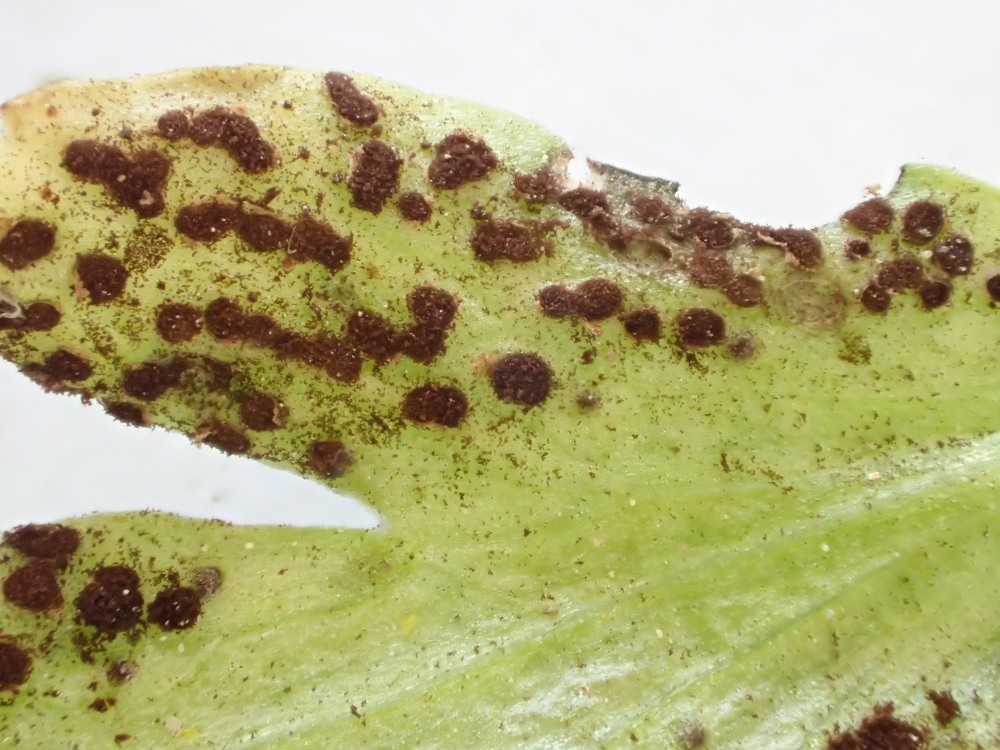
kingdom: Fungi
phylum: Basidiomycota
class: Pucciniomycetes
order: Pucciniales
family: Tranzscheliaceae
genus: Tranzschelia
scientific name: Tranzschelia anemones
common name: anemone-knæksporerust
